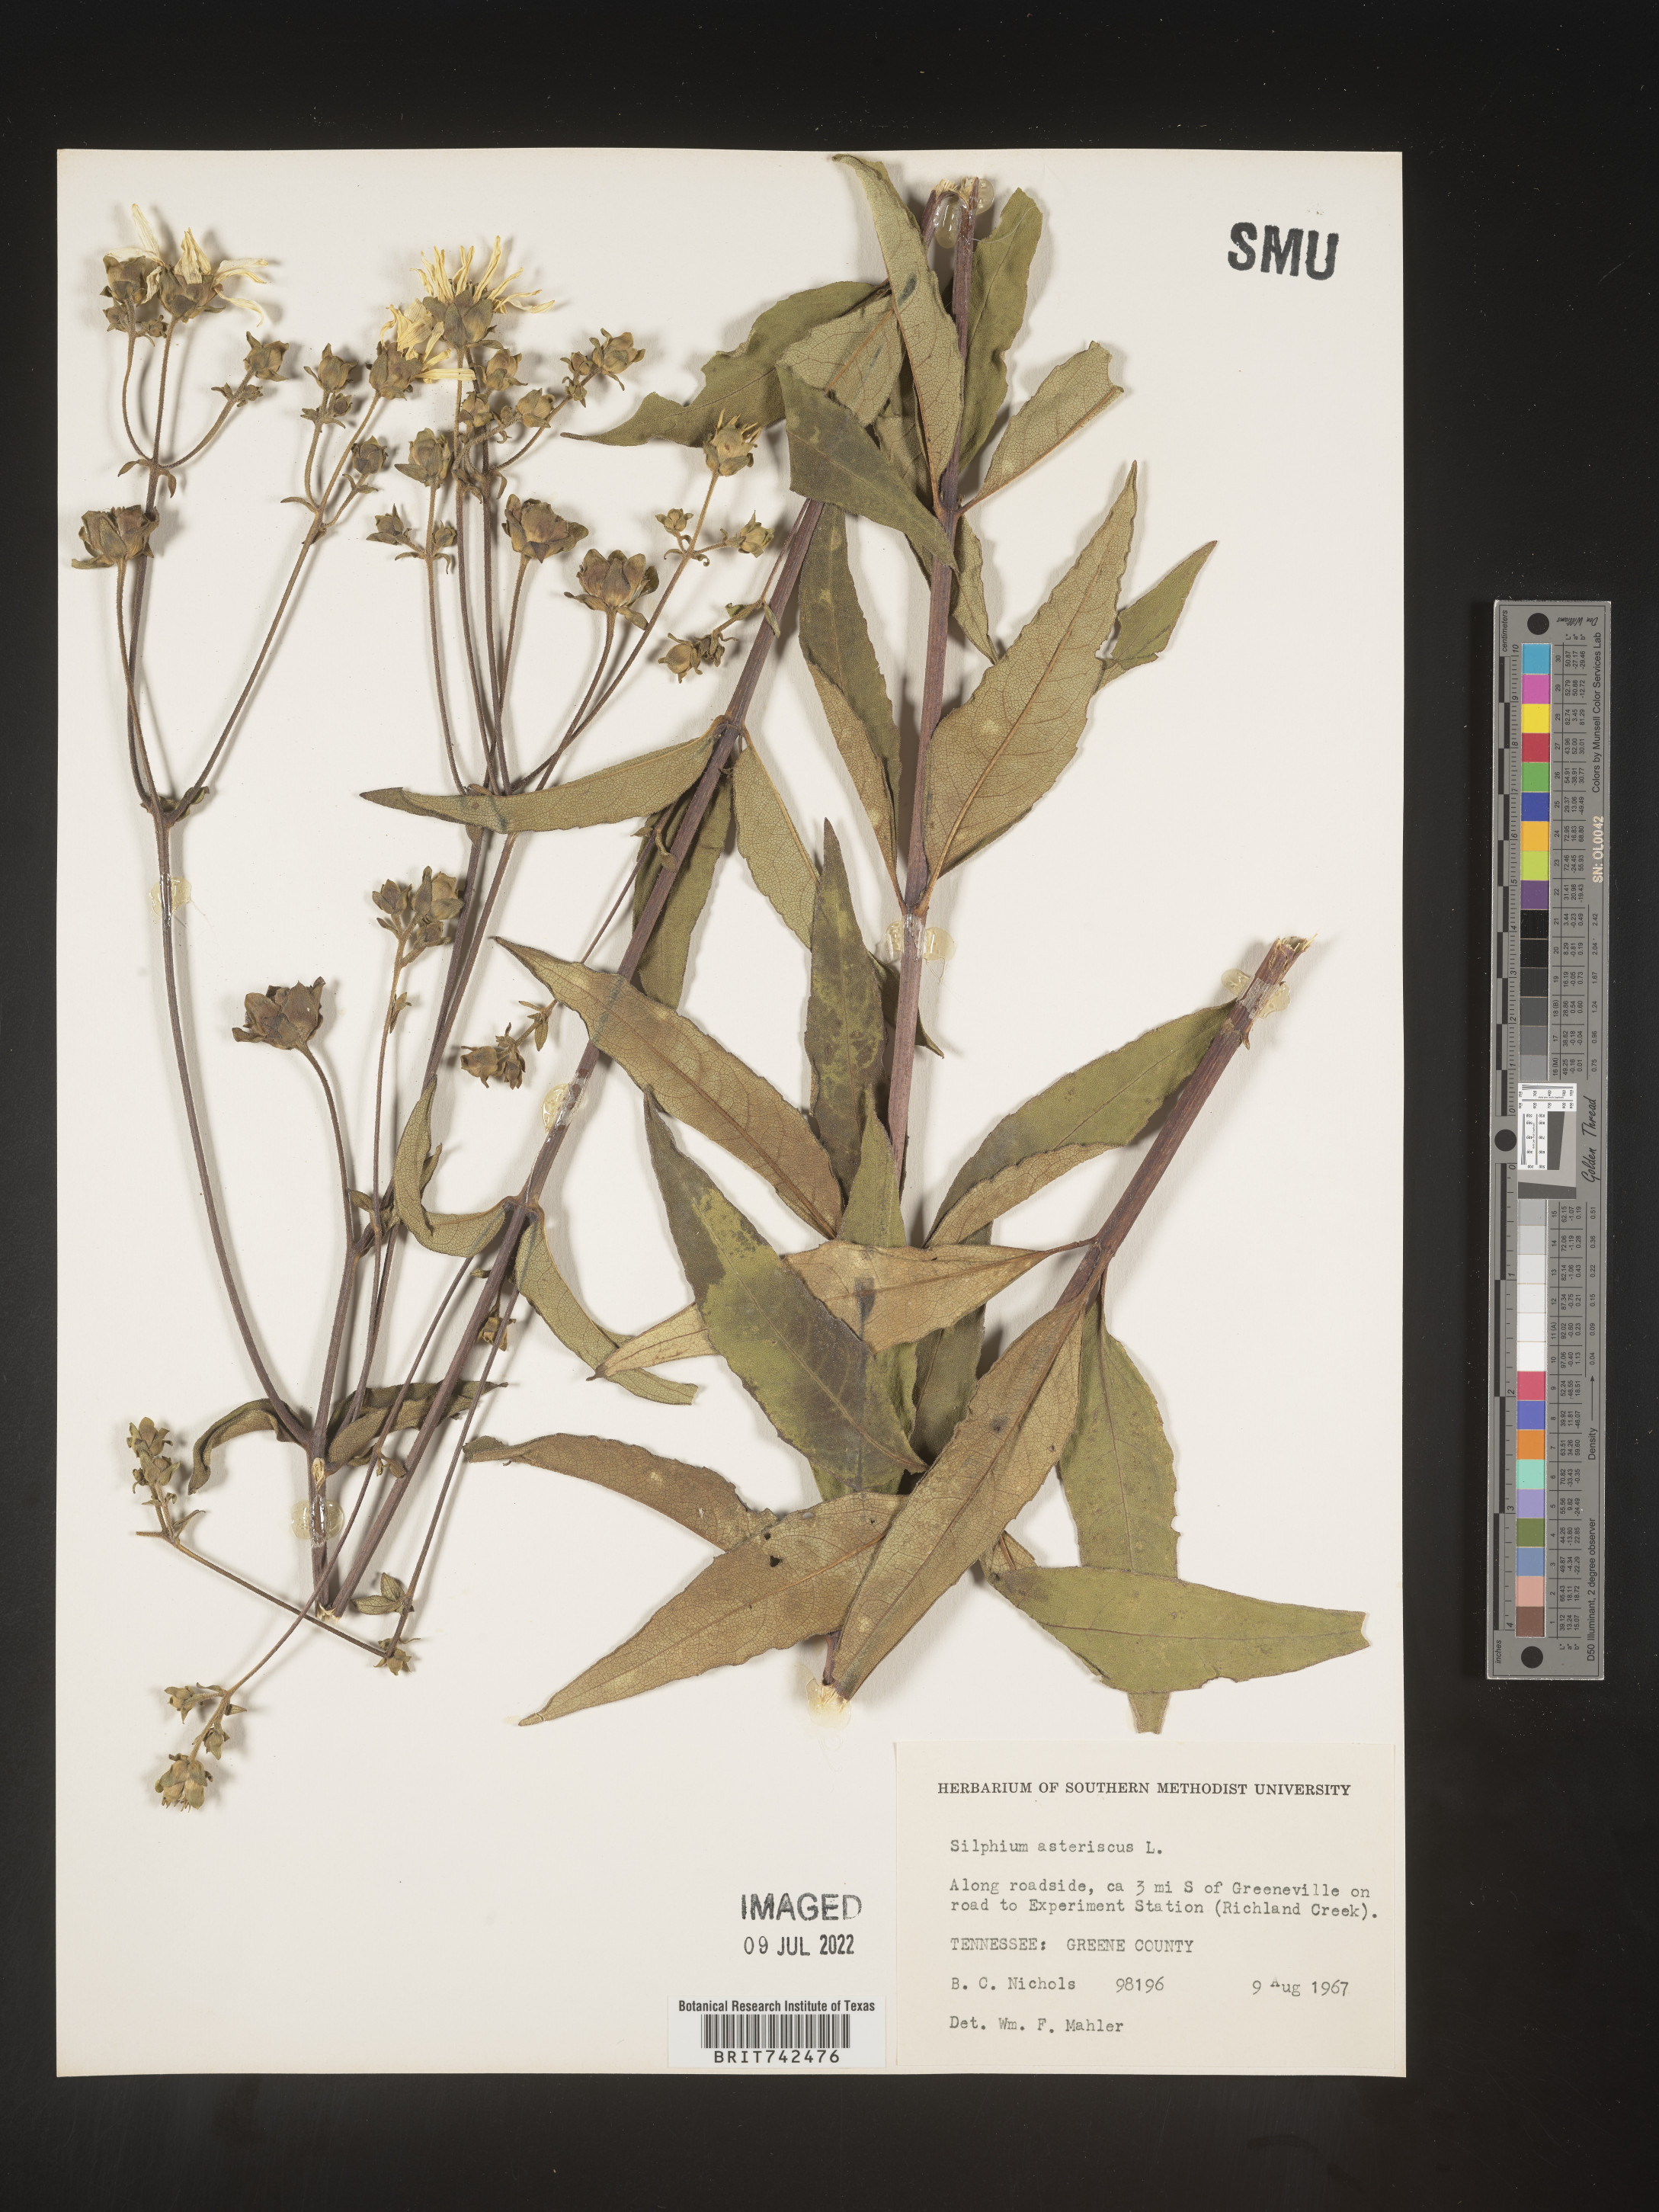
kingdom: Plantae
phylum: Tracheophyta
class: Magnoliopsida
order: Asterales
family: Asteraceae
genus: Silphium
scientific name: Silphium asteriscus
